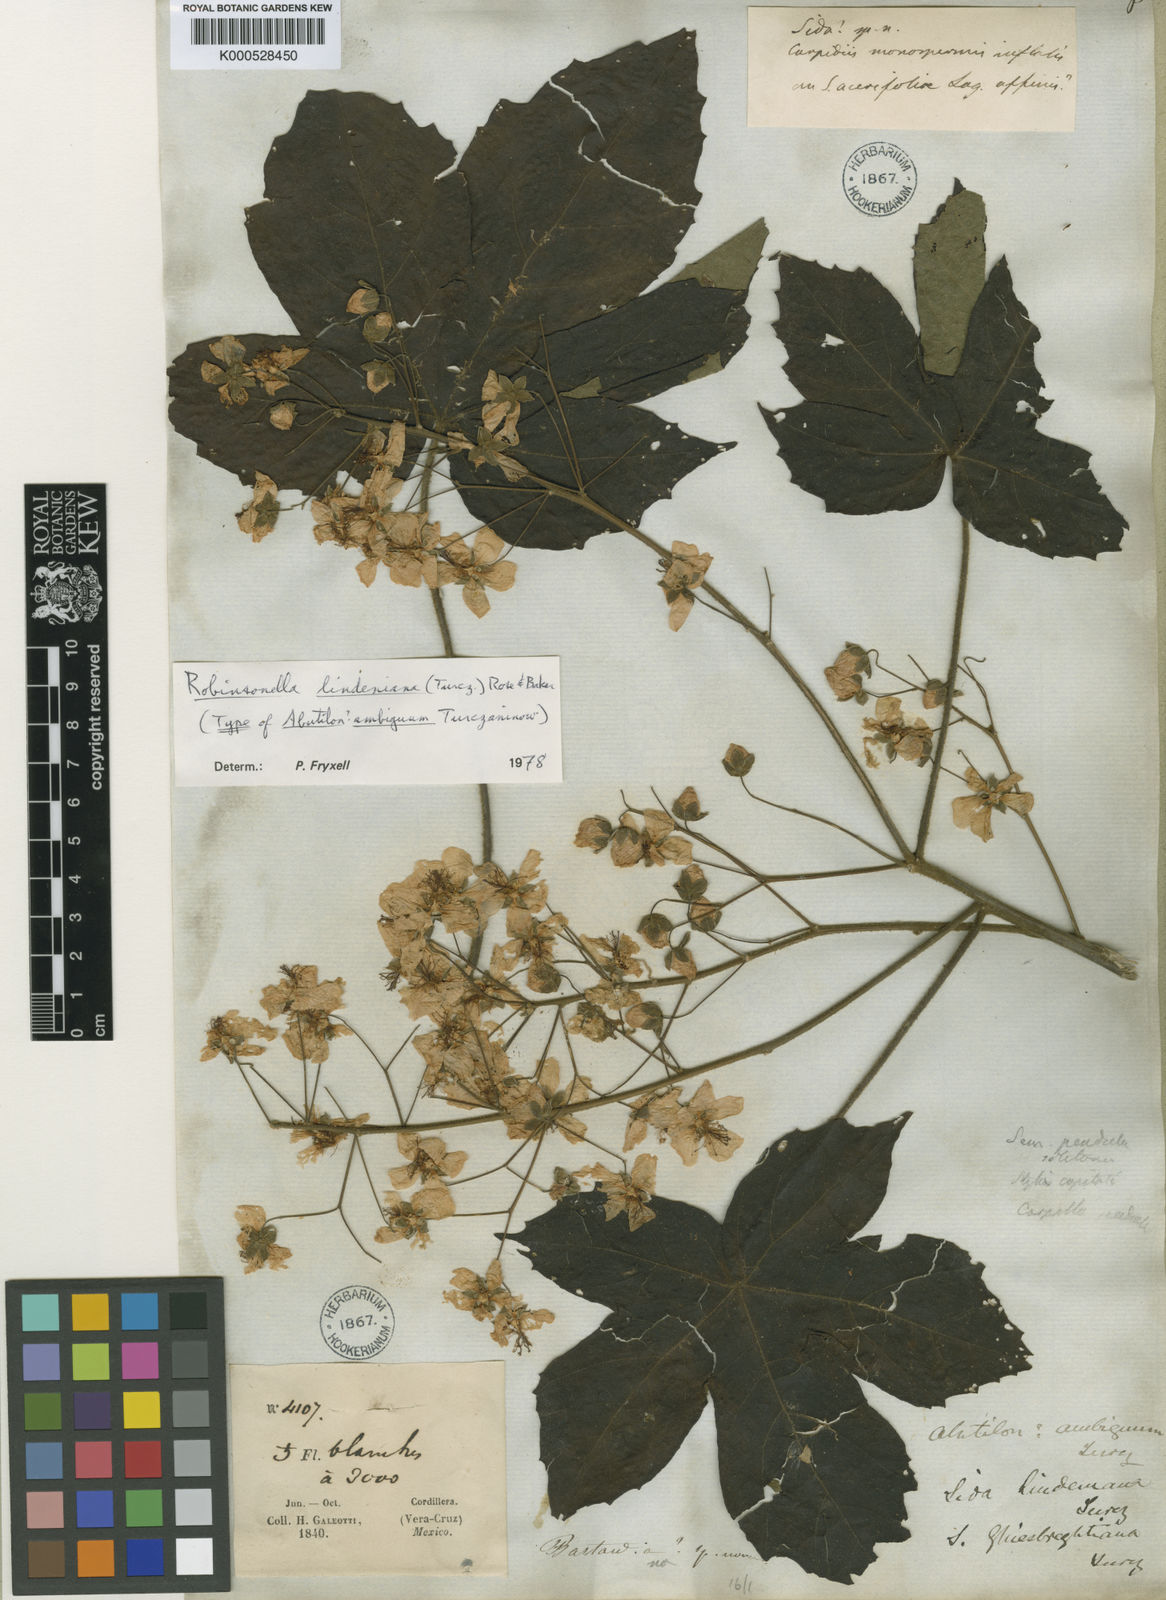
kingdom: Plantae
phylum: Tracheophyta
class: Magnoliopsida
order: Malvales
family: Malvaceae
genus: Robinsonella
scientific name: Robinsonella lindeniana
